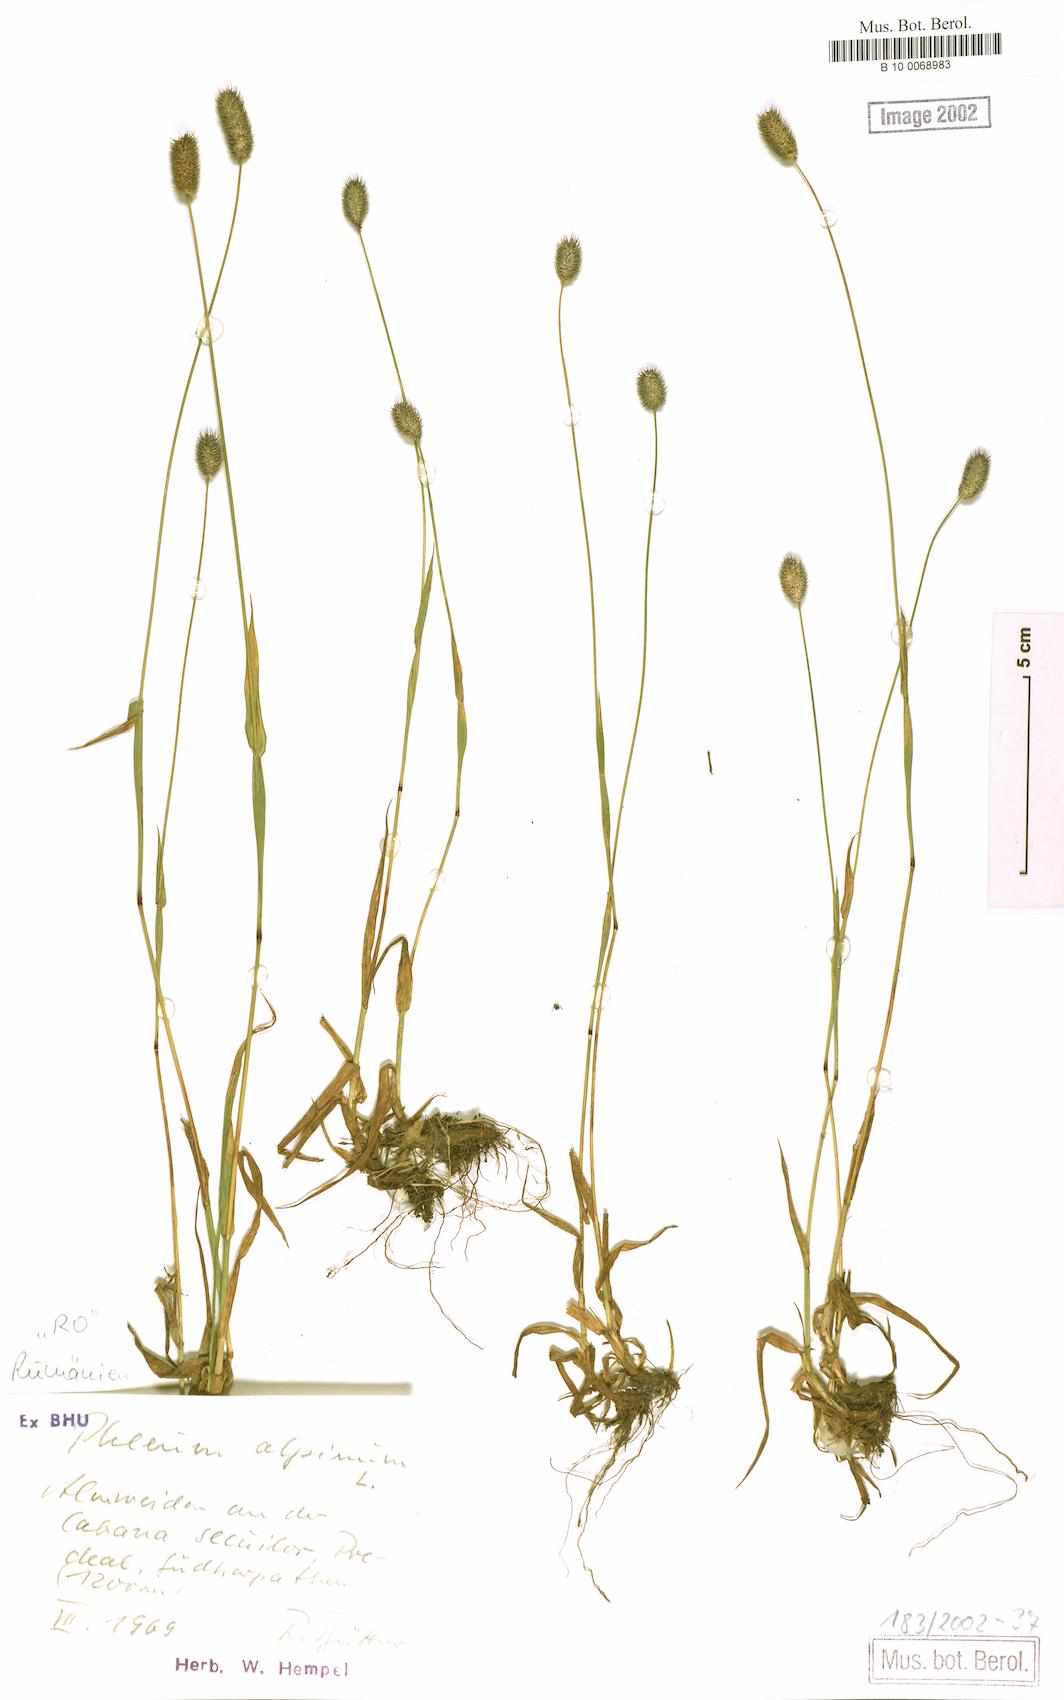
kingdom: Plantae
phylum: Tracheophyta
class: Liliopsida
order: Poales
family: Poaceae
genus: Phleum
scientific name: Phleum alpinum
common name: Alpine cat's-tail
